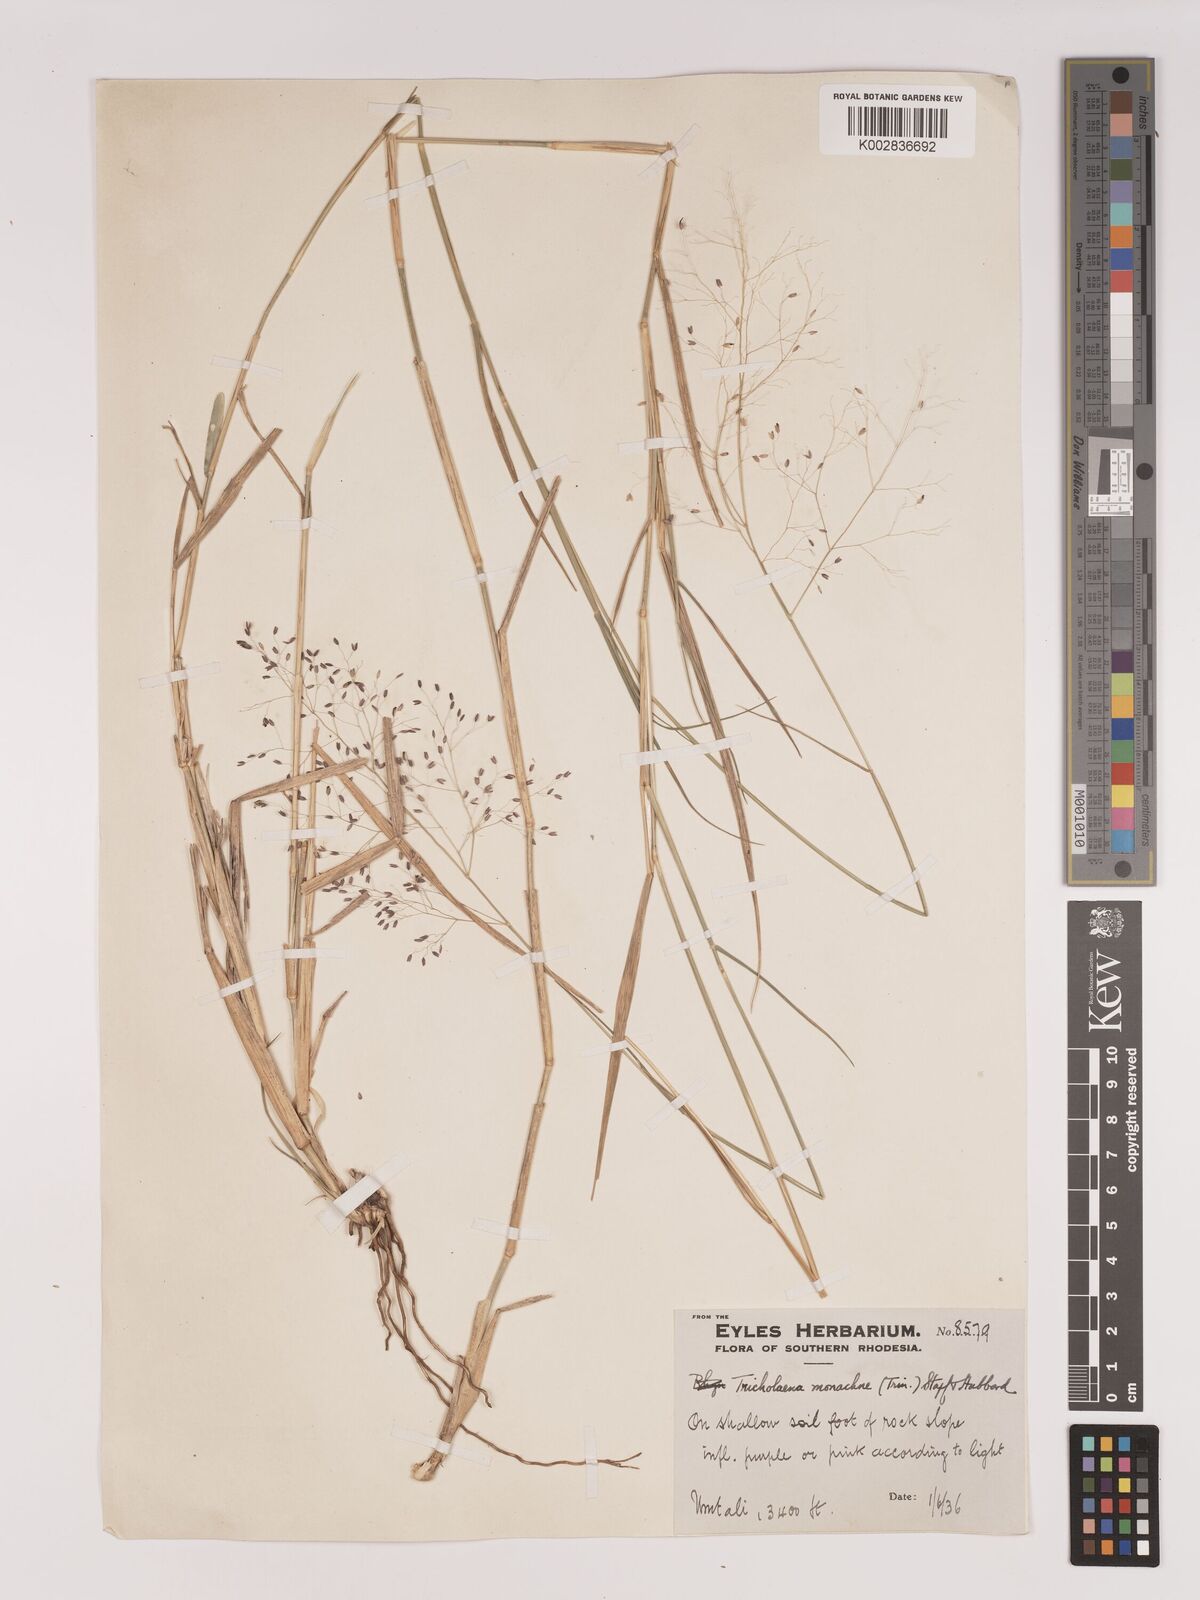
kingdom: Plantae
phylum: Tracheophyta
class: Liliopsida
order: Poales
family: Poaceae
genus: Tricholaena
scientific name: Tricholaena monachne
